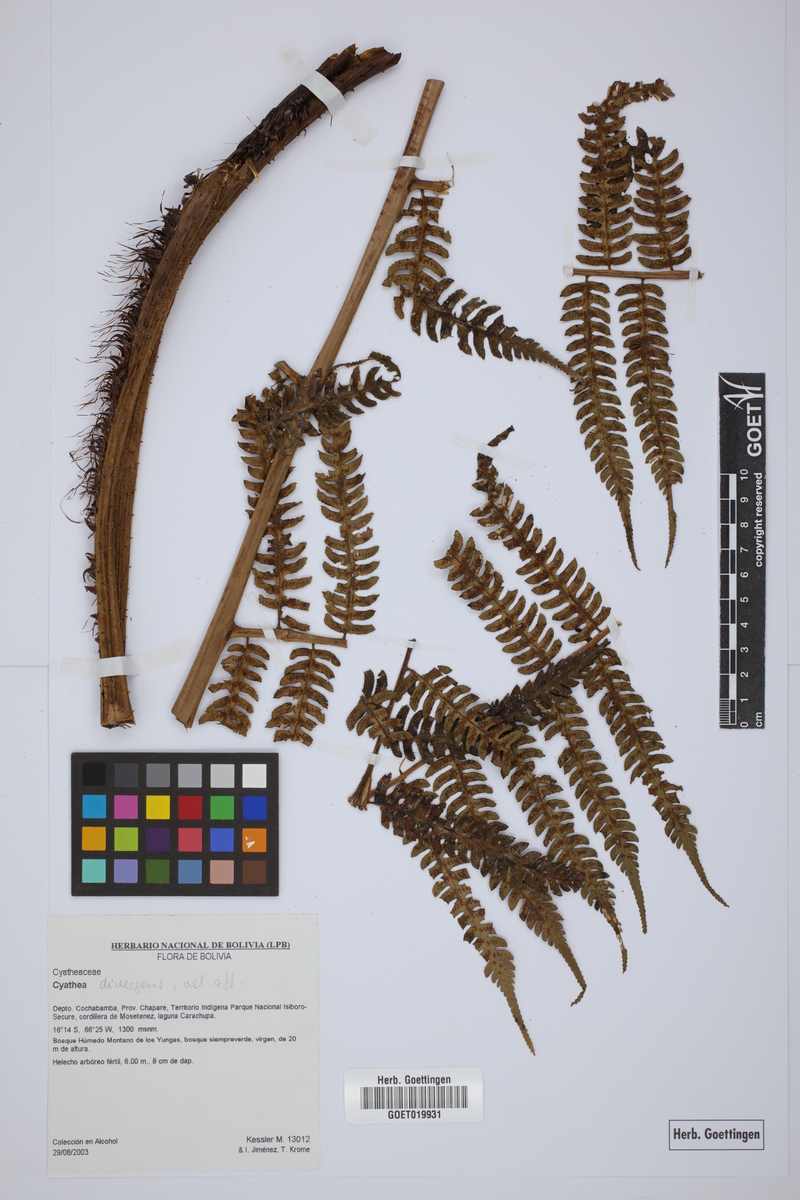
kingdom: Plantae
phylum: Tracheophyta
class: Polypodiopsida
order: Cyatheales
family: Cyatheaceae
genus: Cyathea
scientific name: Cyathea dintelmannii
